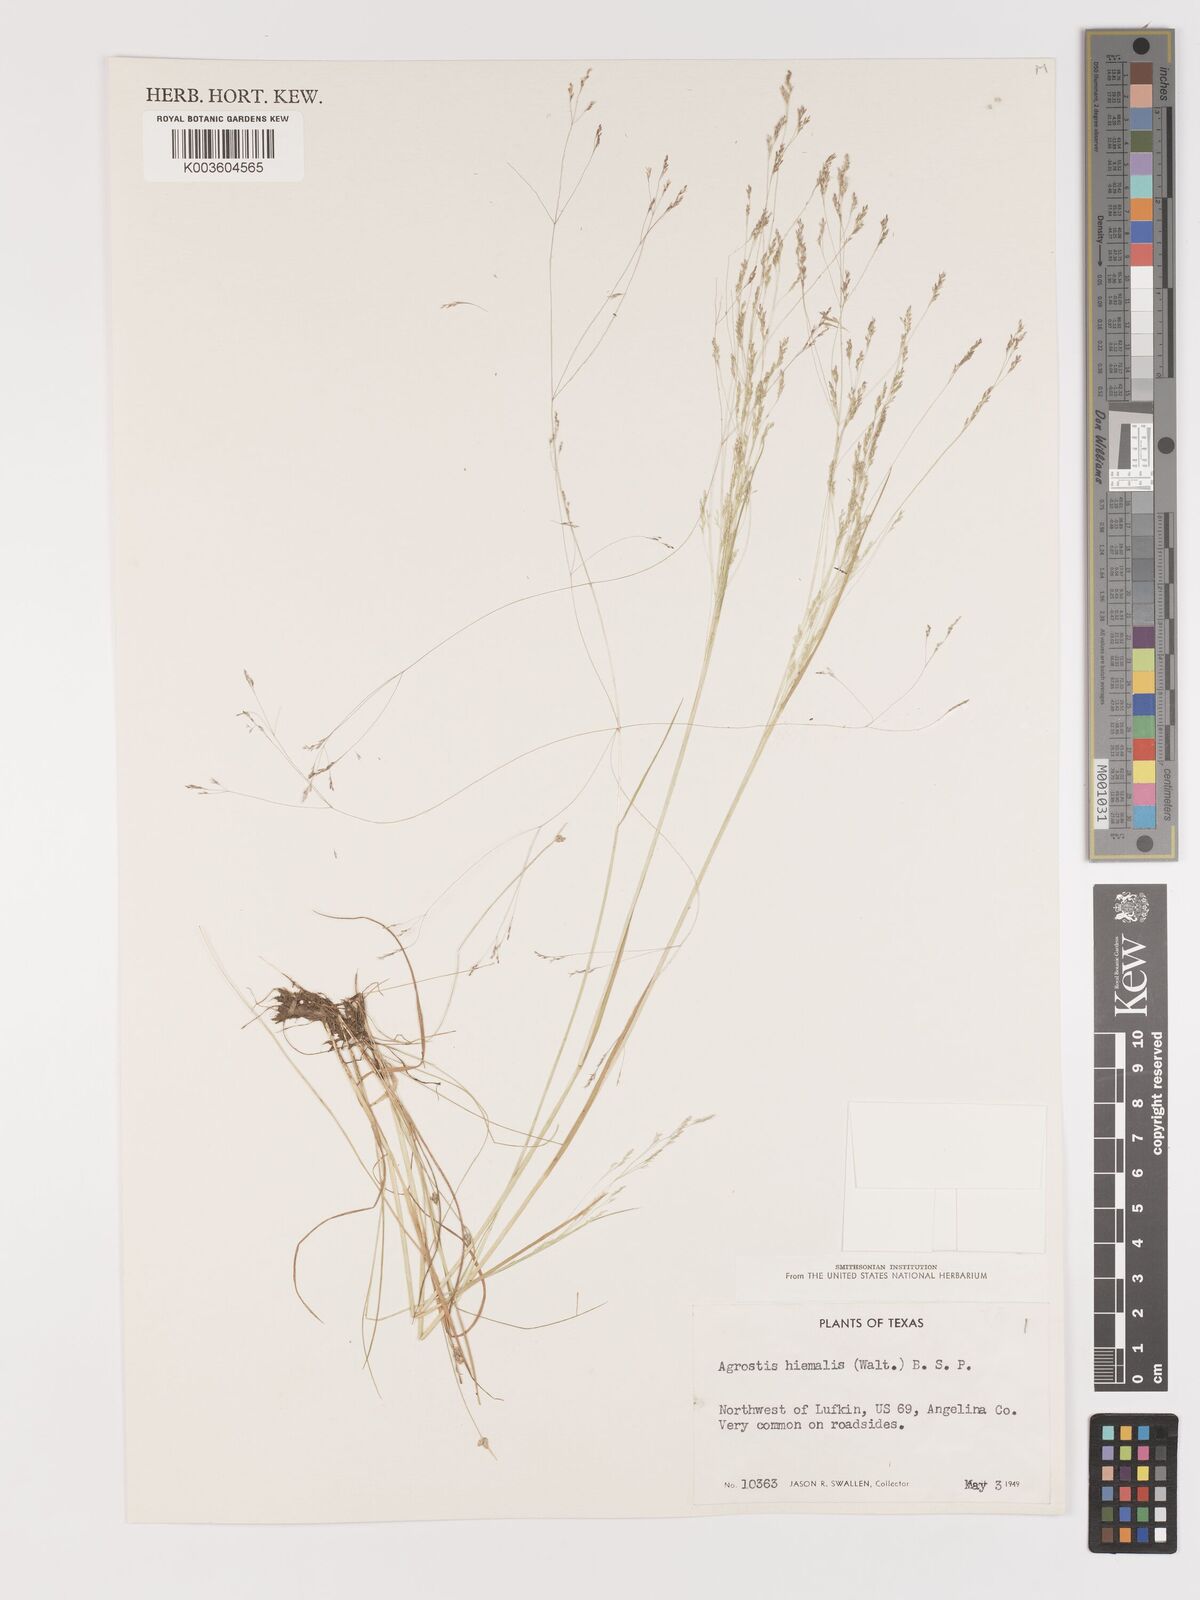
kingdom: Plantae
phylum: Tracheophyta
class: Liliopsida
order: Poales
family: Poaceae
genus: Agrostis
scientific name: Agrostis hyemalis
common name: Small bent
